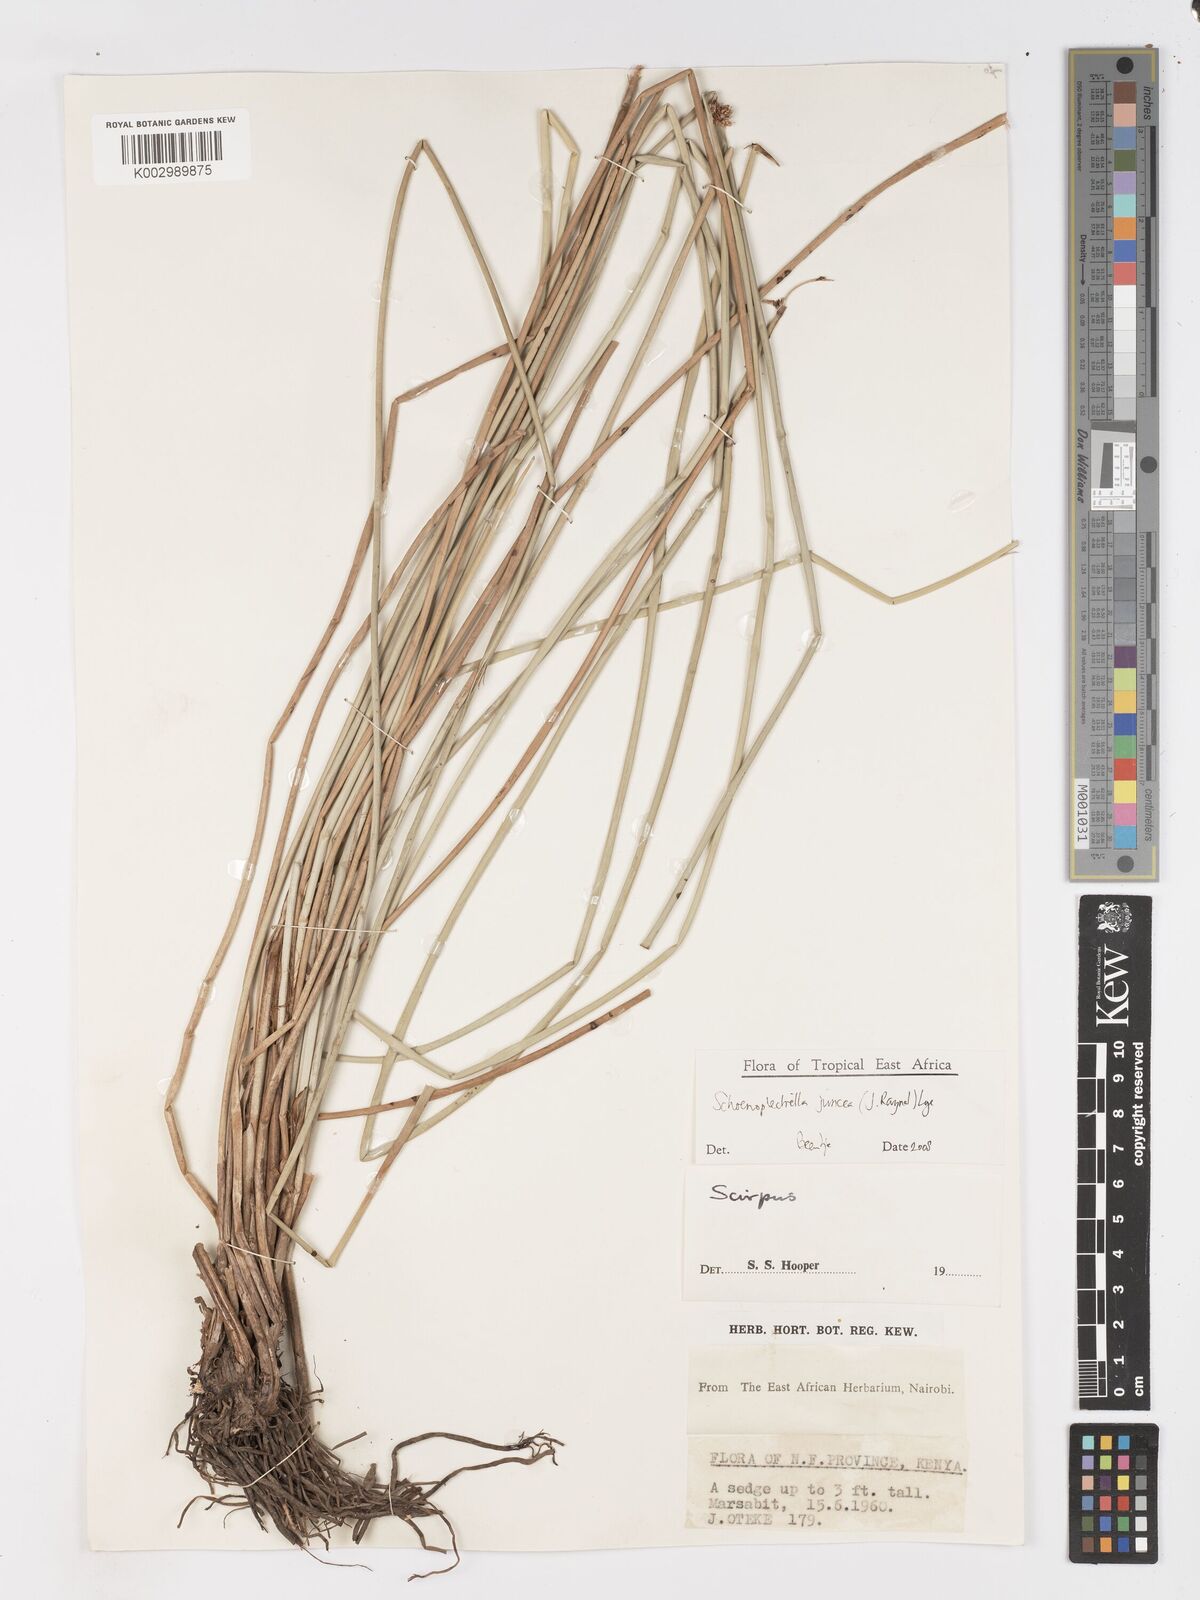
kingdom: Plantae
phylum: Tracheophyta
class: Liliopsida
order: Poales
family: Cyperaceae
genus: Schoenoplectiella
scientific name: Schoenoplectiella juncea
